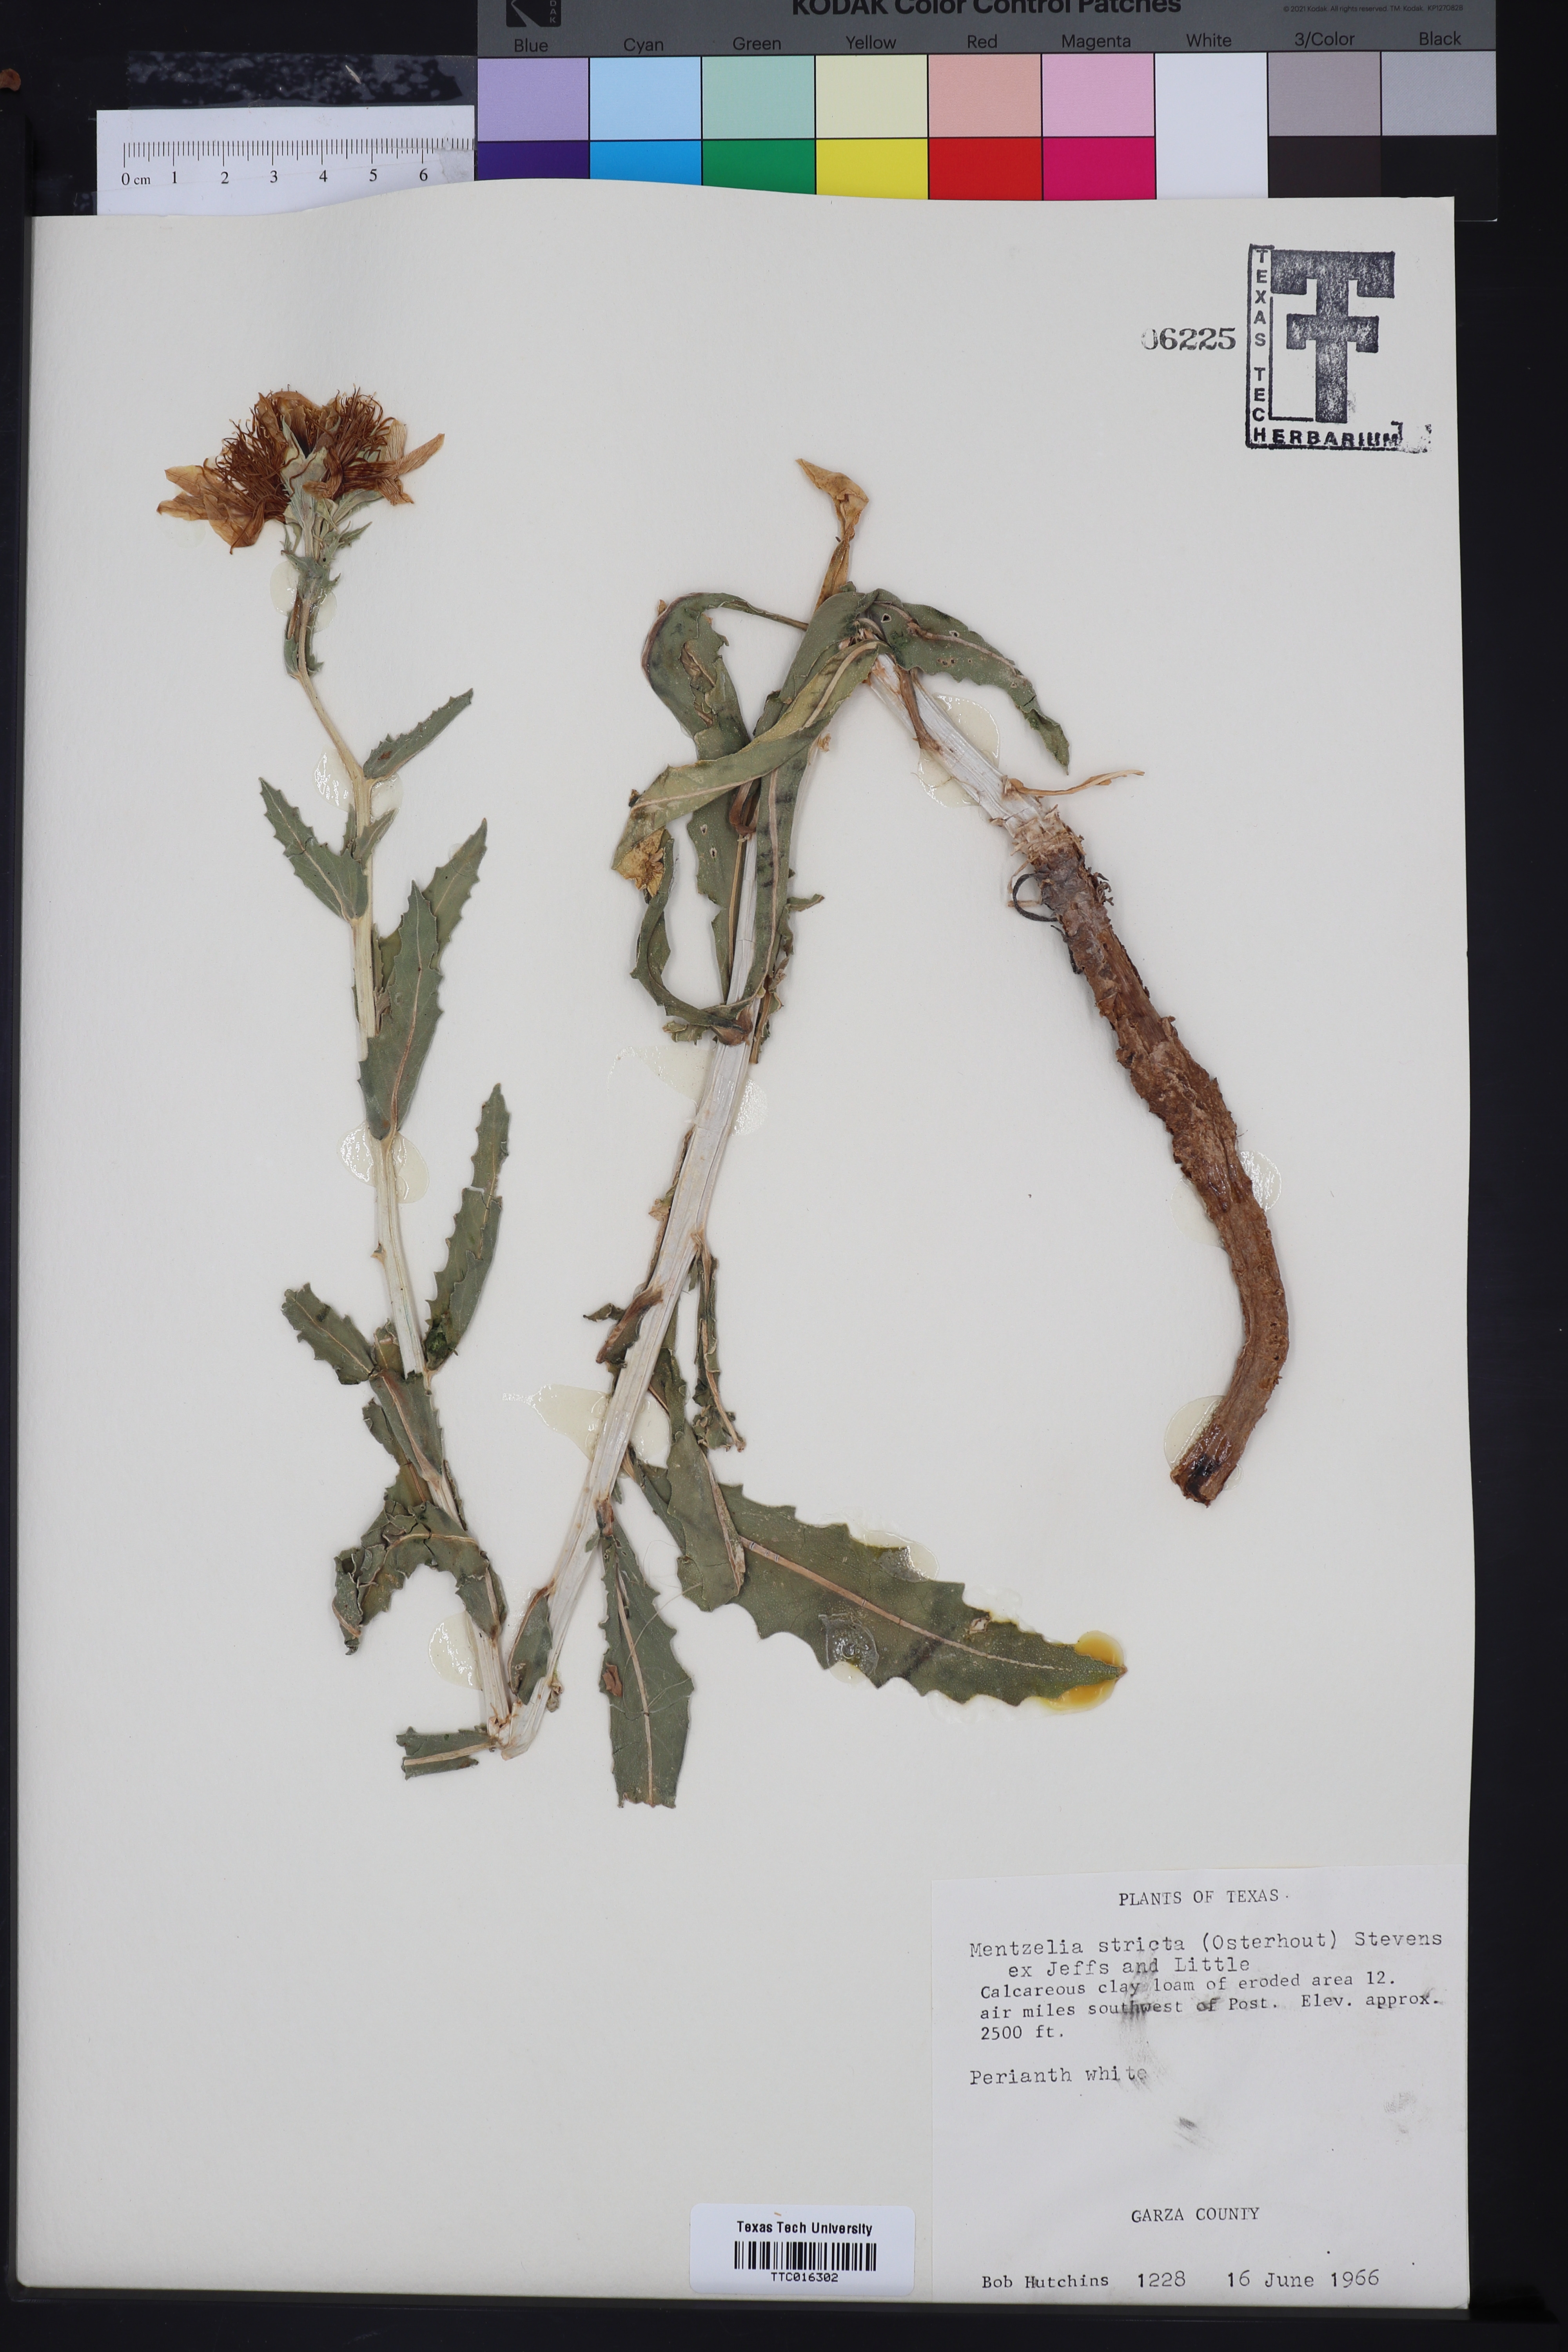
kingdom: Plantae
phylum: Tracheophyta
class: Magnoliopsida
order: Cornales
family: Loasaceae
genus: Mentzelia
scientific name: Mentzelia nuda
